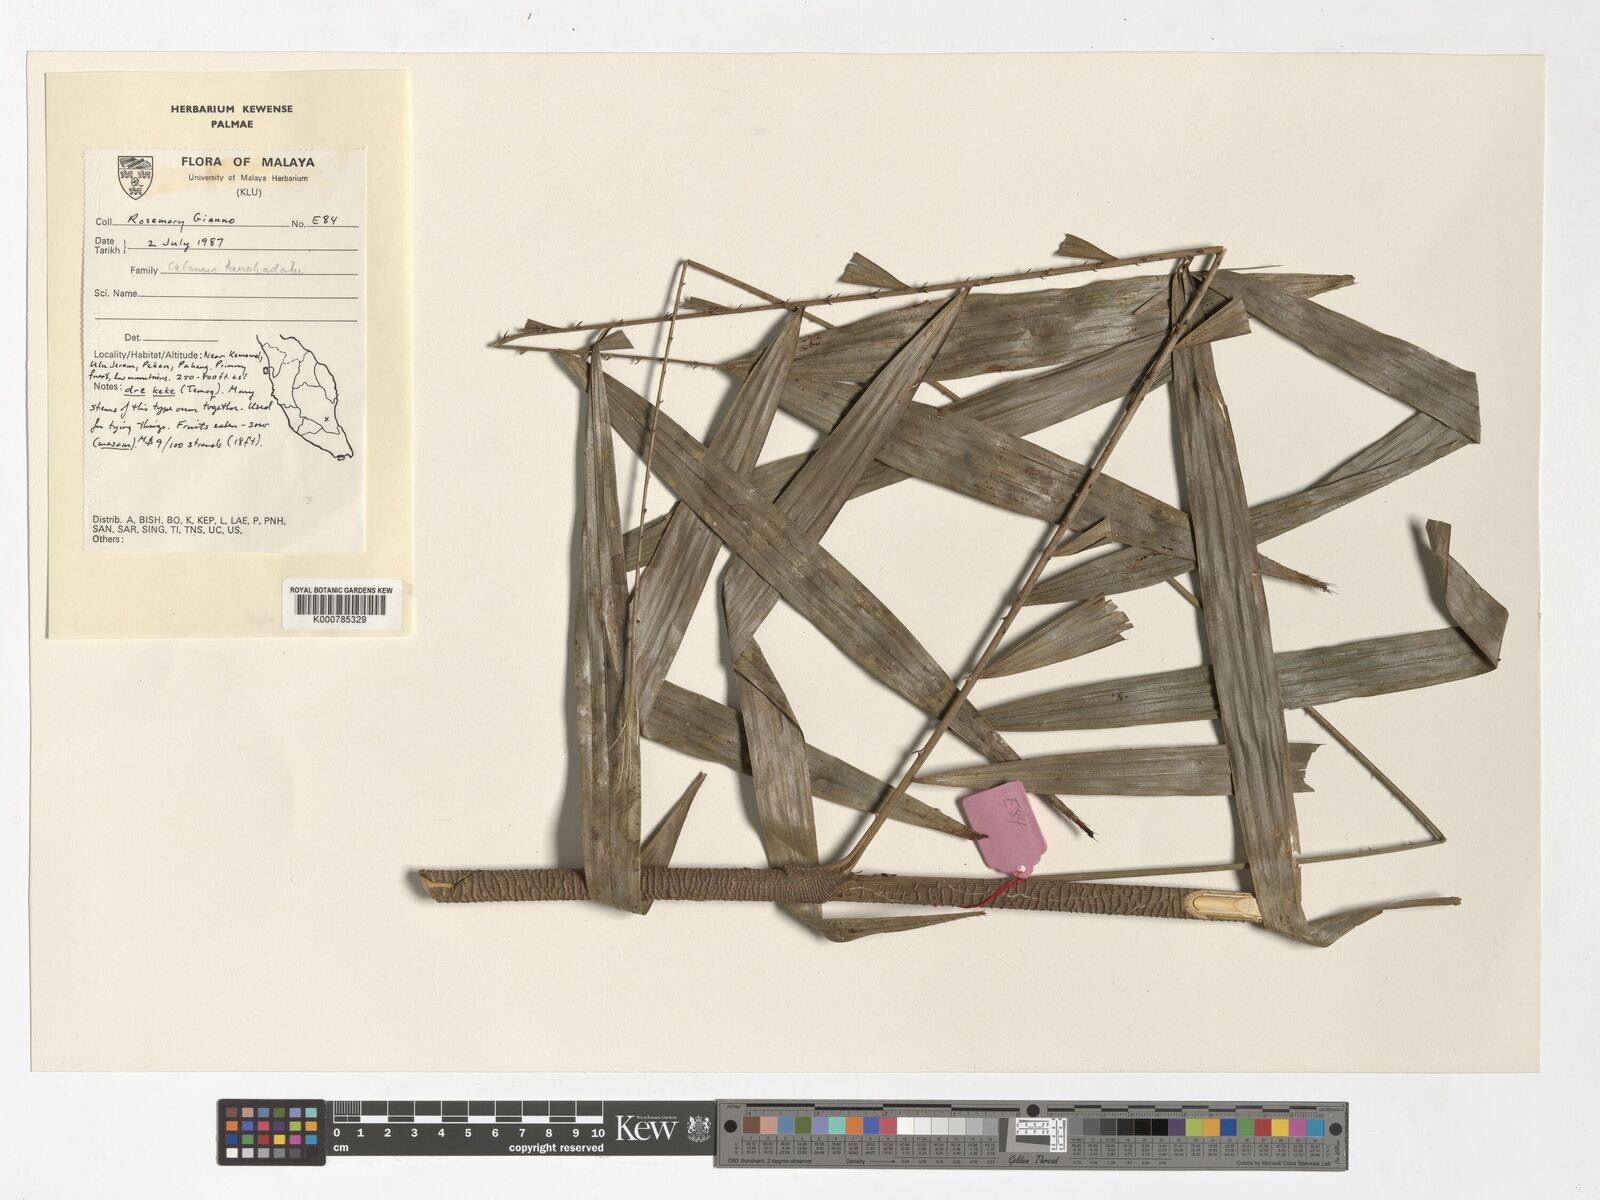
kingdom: Plantae
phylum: Tracheophyta
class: Liliopsida
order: Arecales
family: Arecaceae
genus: Calamus
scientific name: Calamus ruvidus
